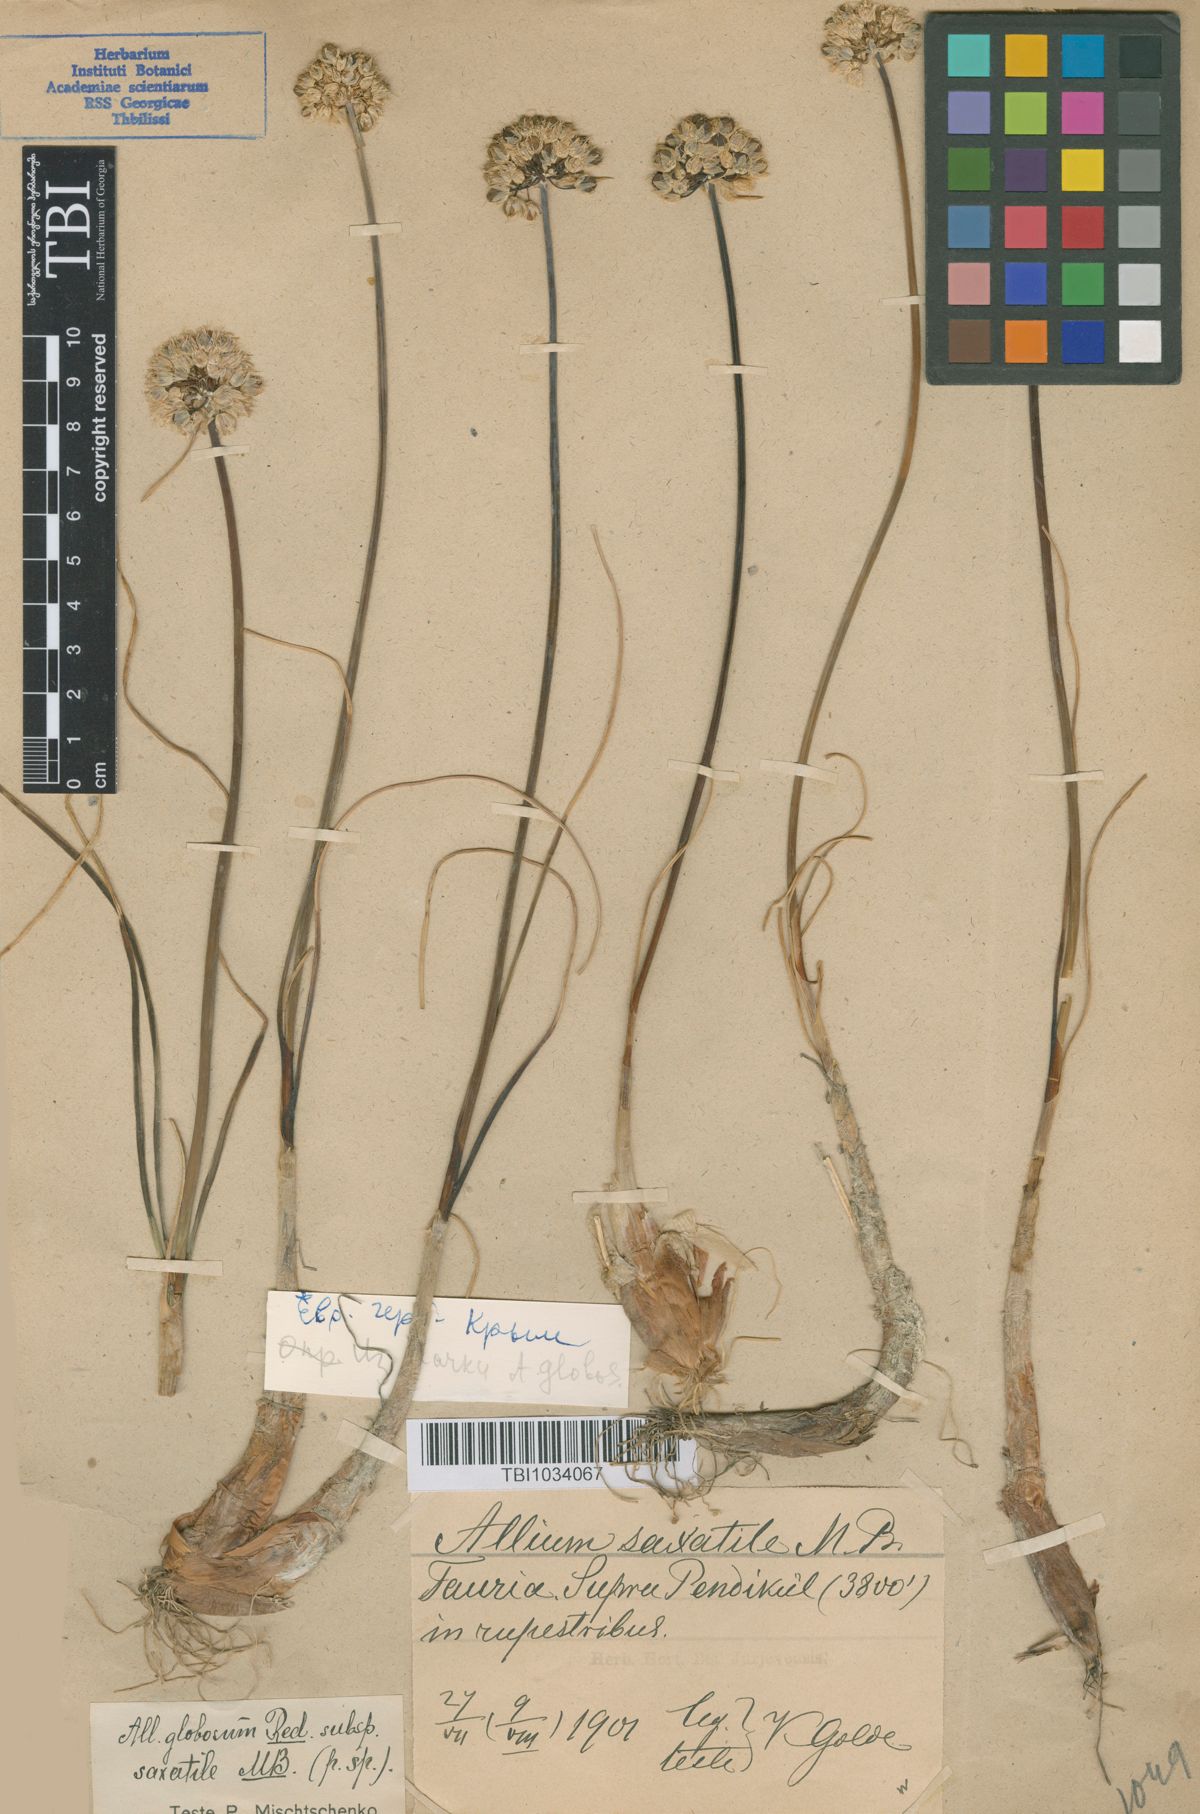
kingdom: Plantae
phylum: Tracheophyta
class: Liliopsida
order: Asparagales
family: Amaryllidaceae
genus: Allium
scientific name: Allium saxatile
